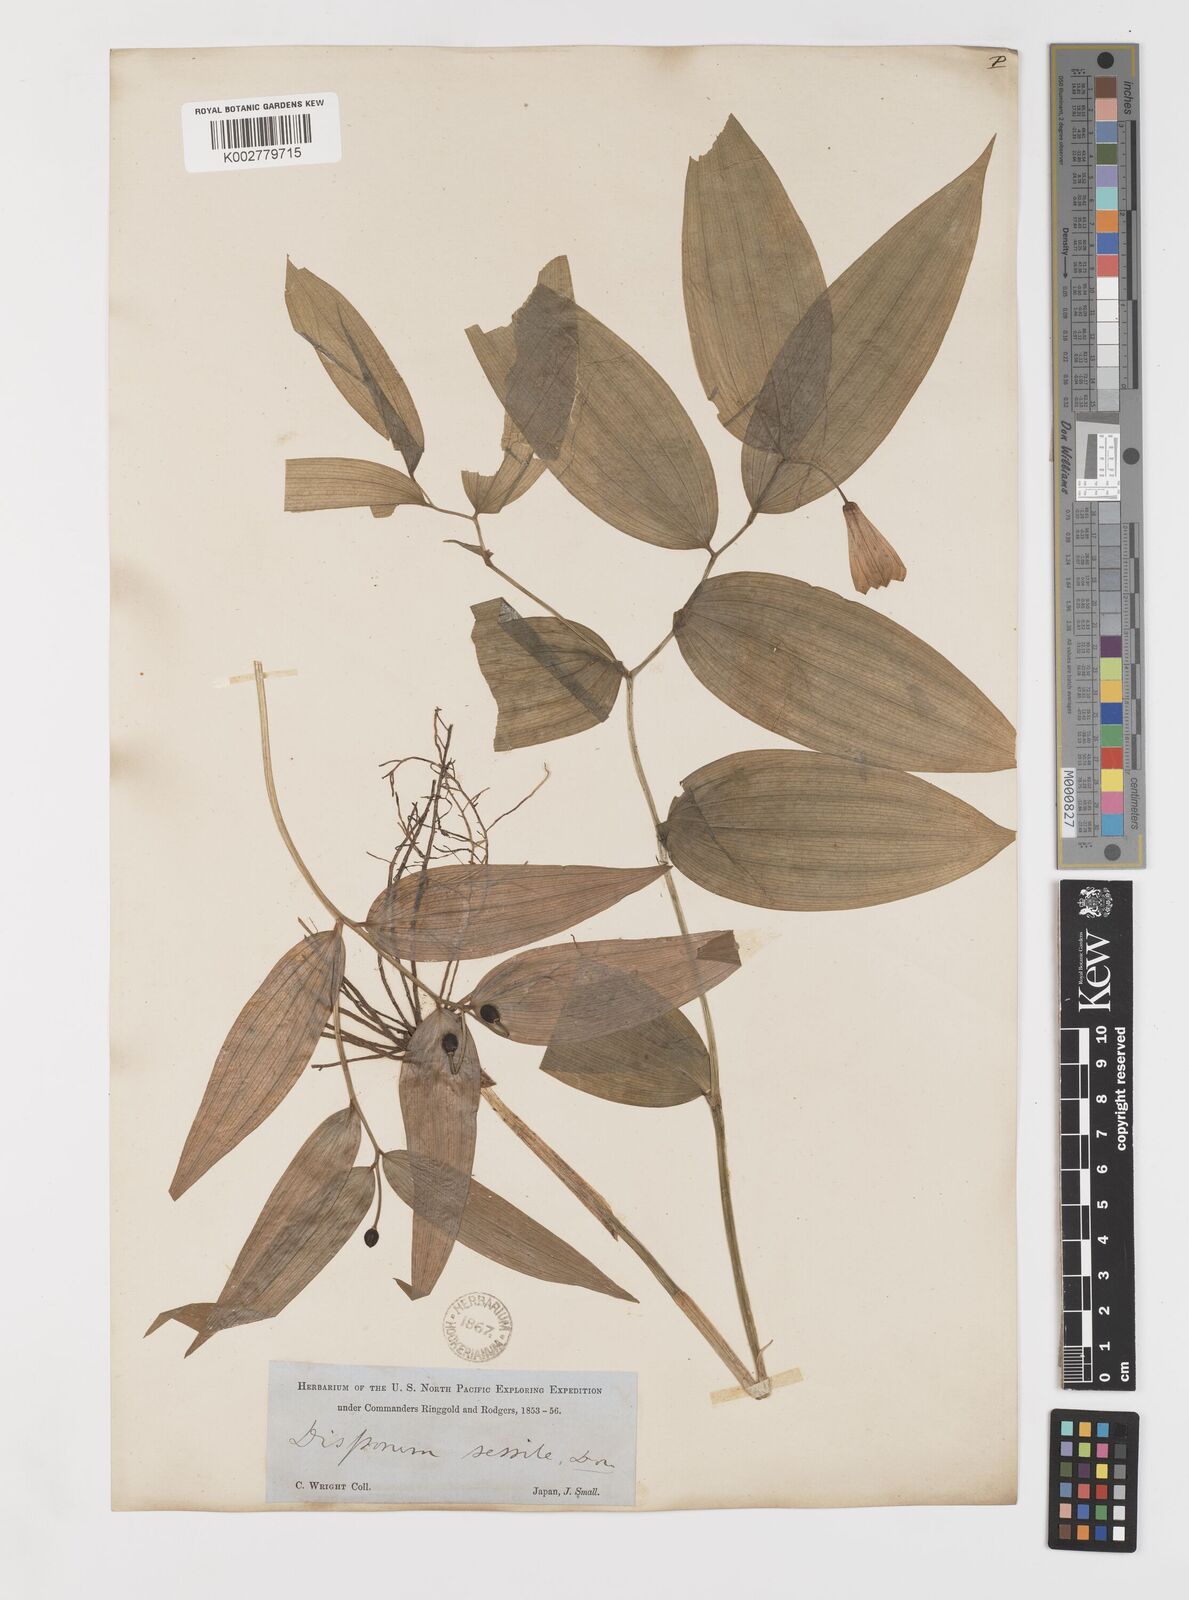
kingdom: Plantae
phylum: Tracheophyta
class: Liliopsida
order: Liliales
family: Colchicaceae
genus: Disporum
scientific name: Disporum sessile
